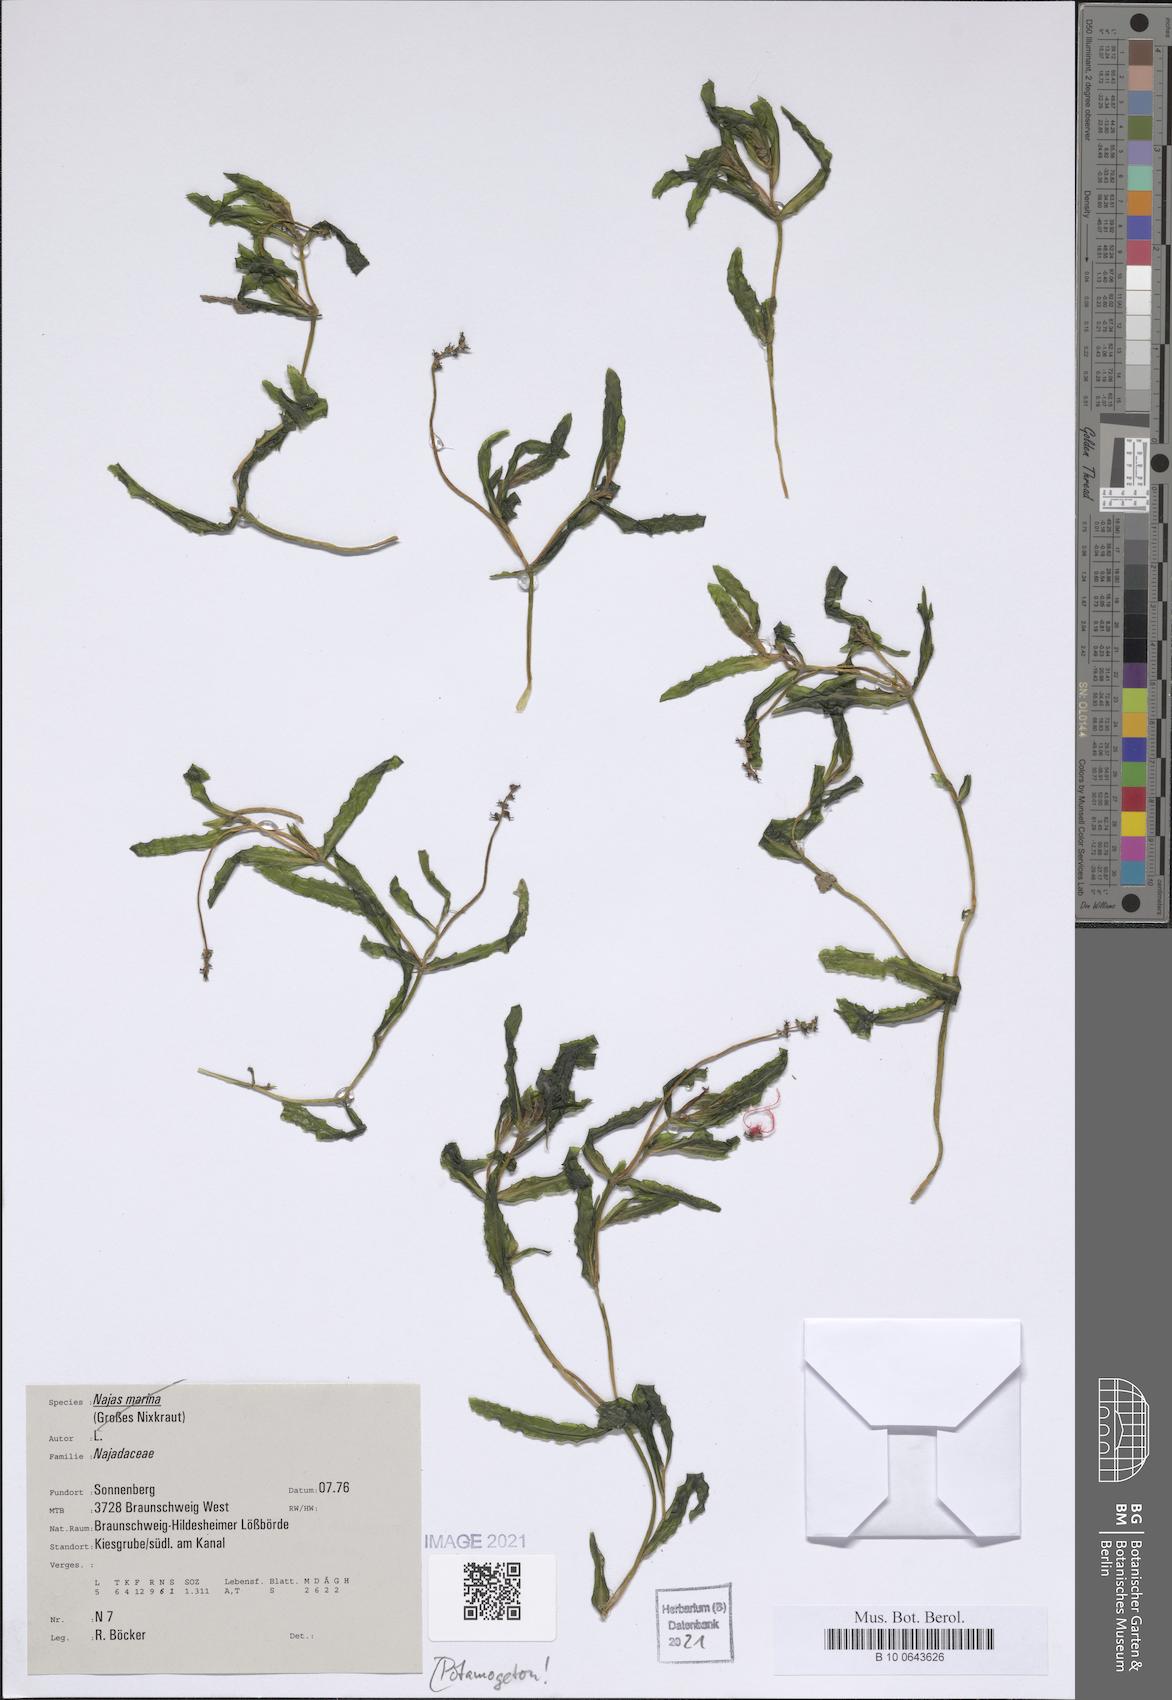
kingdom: Plantae
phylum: Tracheophyta
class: Liliopsida
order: Alismatales
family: Potamogetonaceae
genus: Potamogeton
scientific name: Potamogeton
